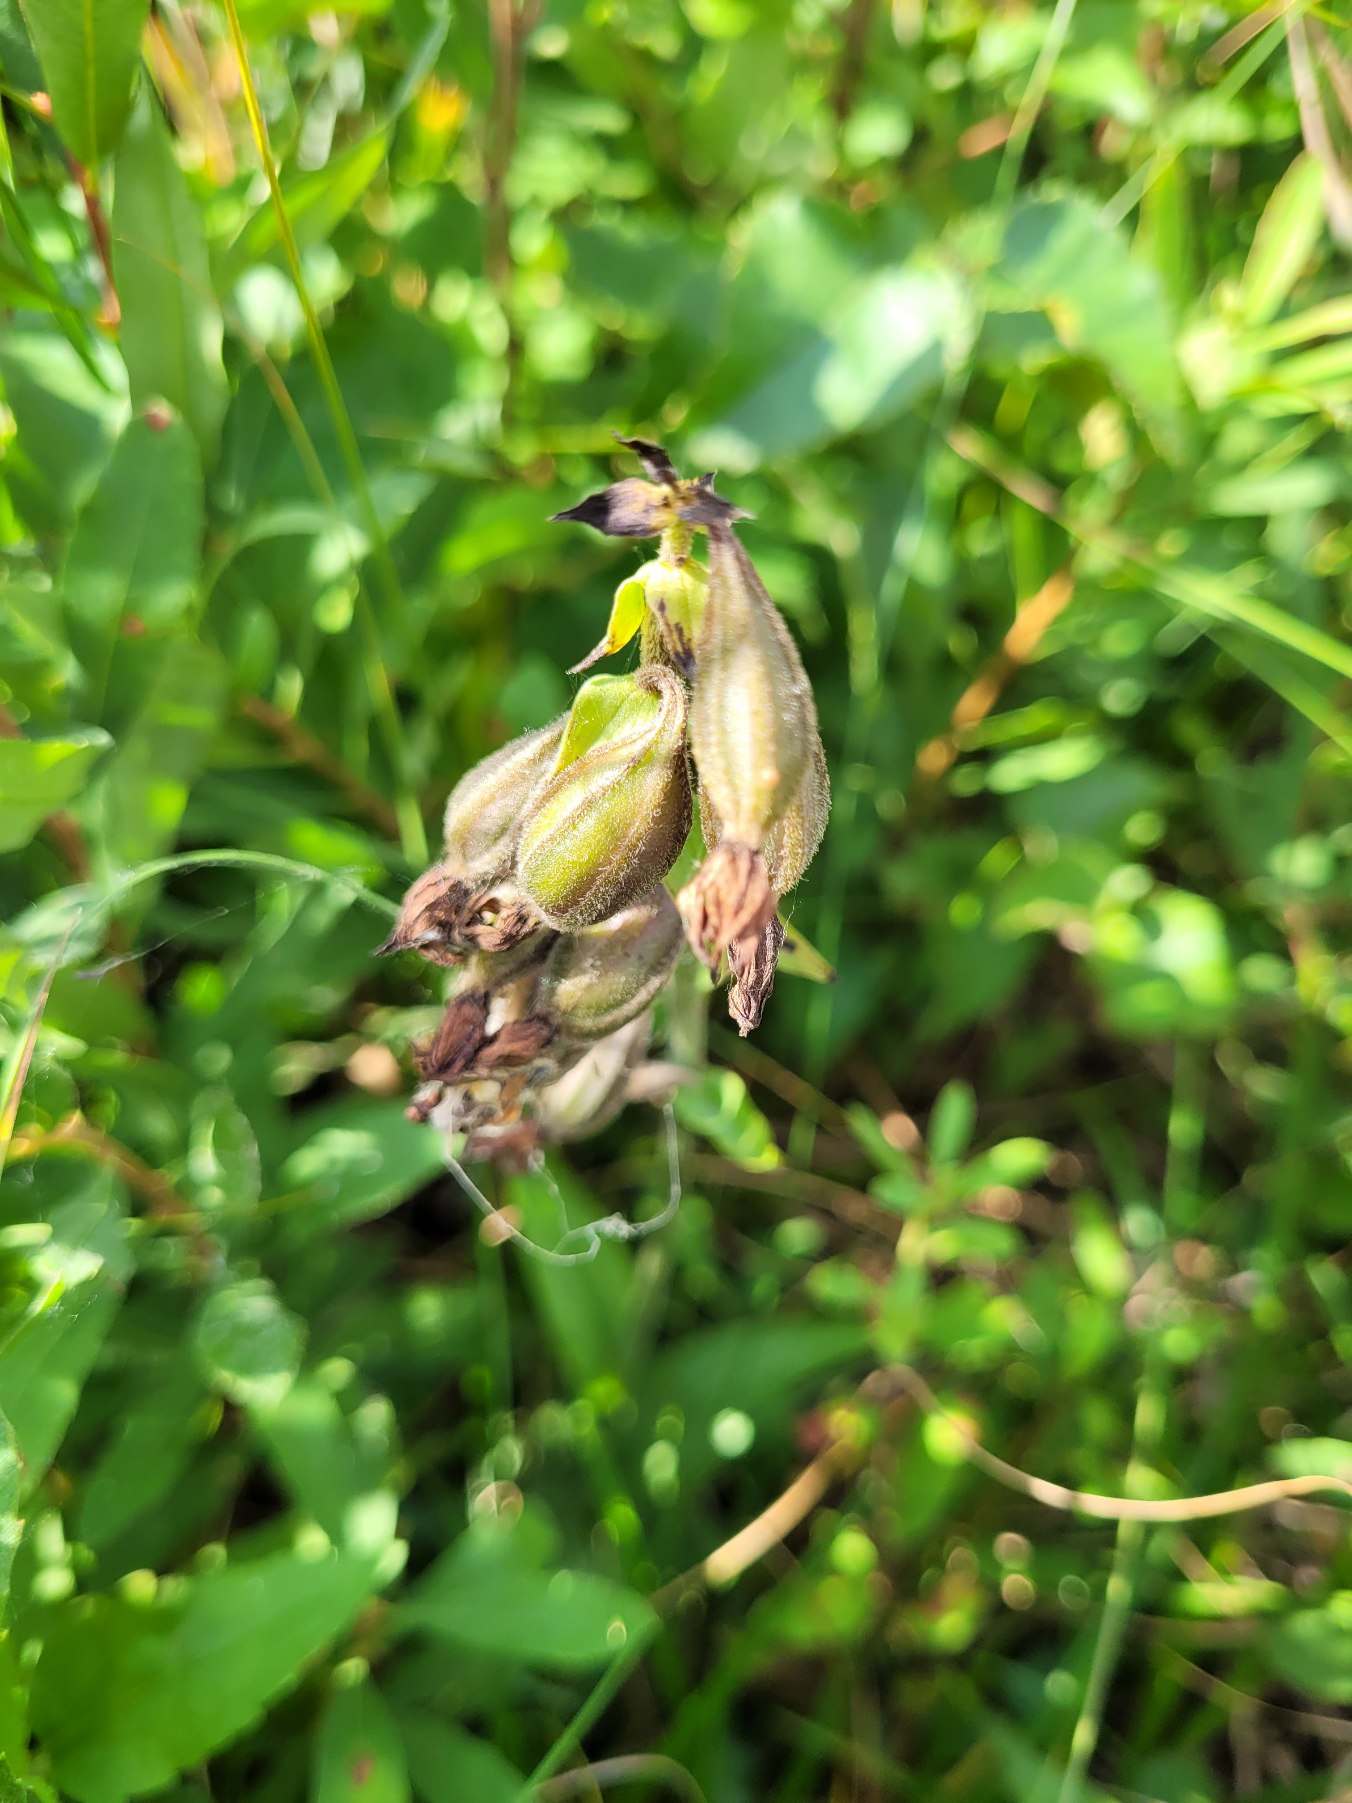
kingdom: Plantae
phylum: Tracheophyta
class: Liliopsida
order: Asparagales
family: Orchidaceae
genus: Epipactis
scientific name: Epipactis palustris
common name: Sump-hullæbe
